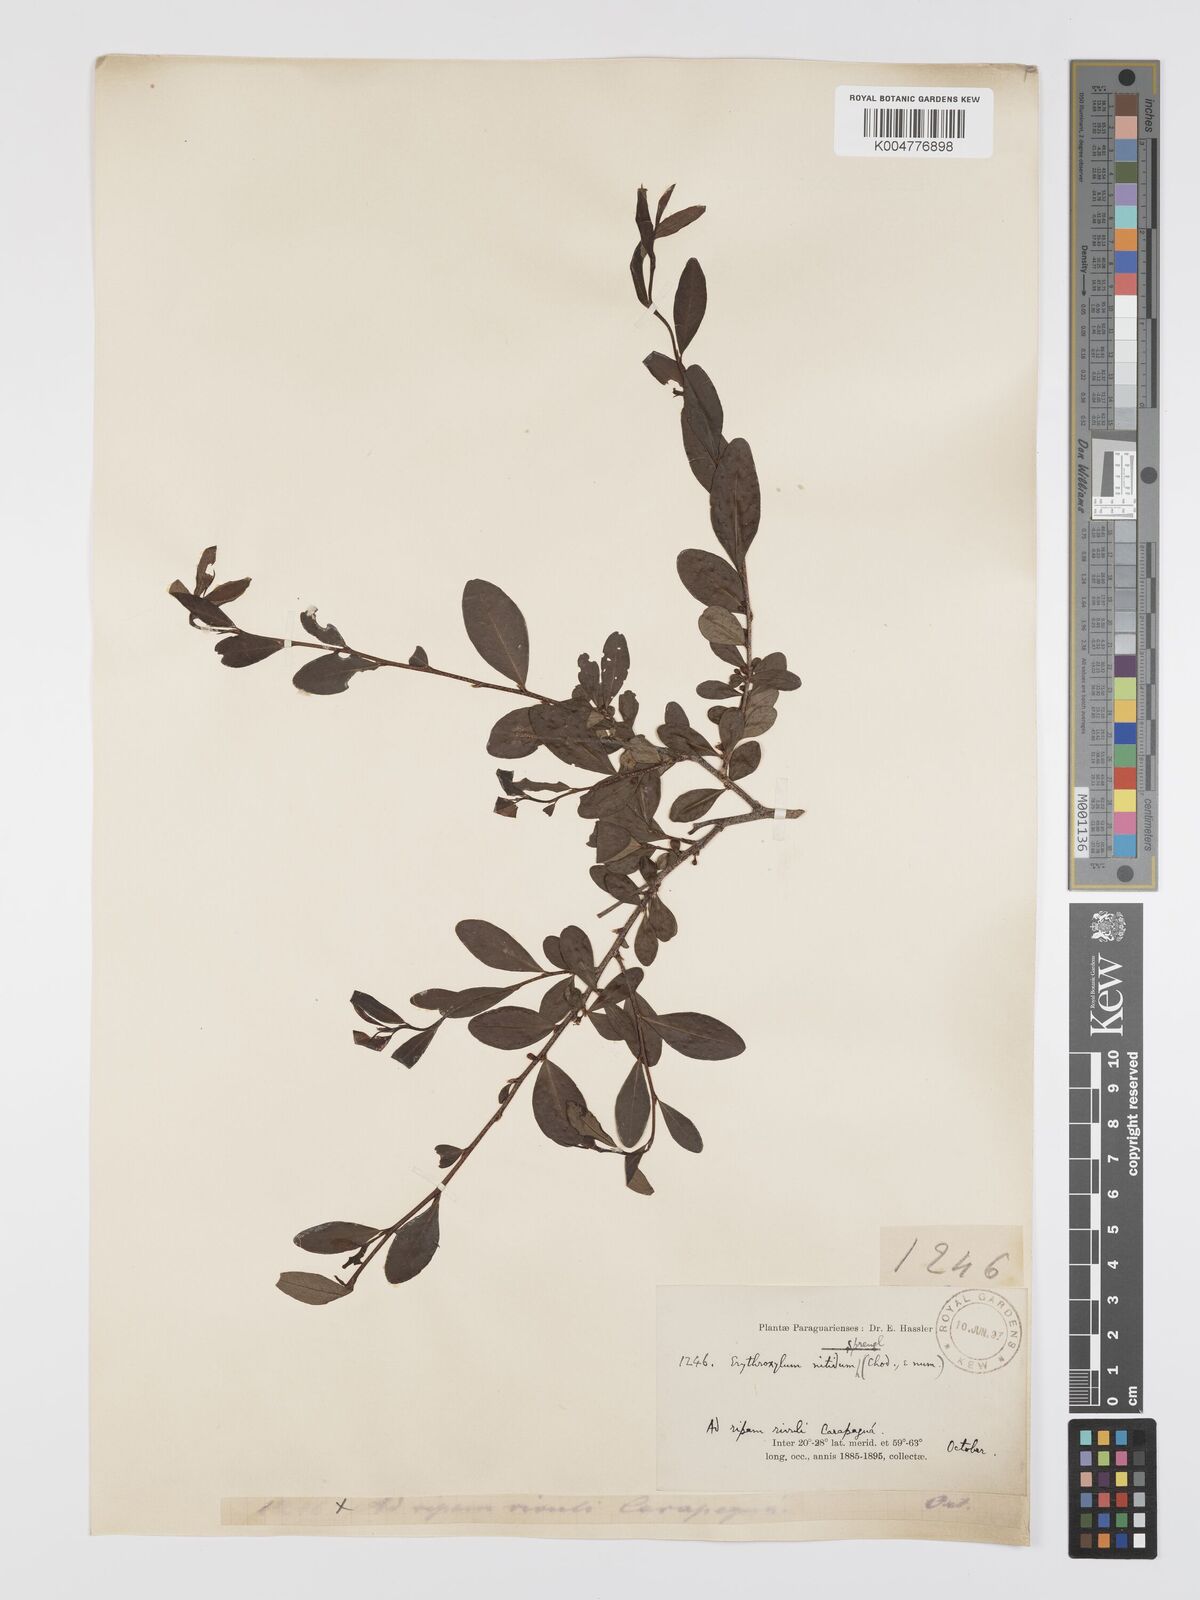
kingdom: Plantae
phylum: Tracheophyta
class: Magnoliopsida
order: Malpighiales
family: Erythroxylaceae
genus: Erythroxylum
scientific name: Erythroxylum cuneifolium
